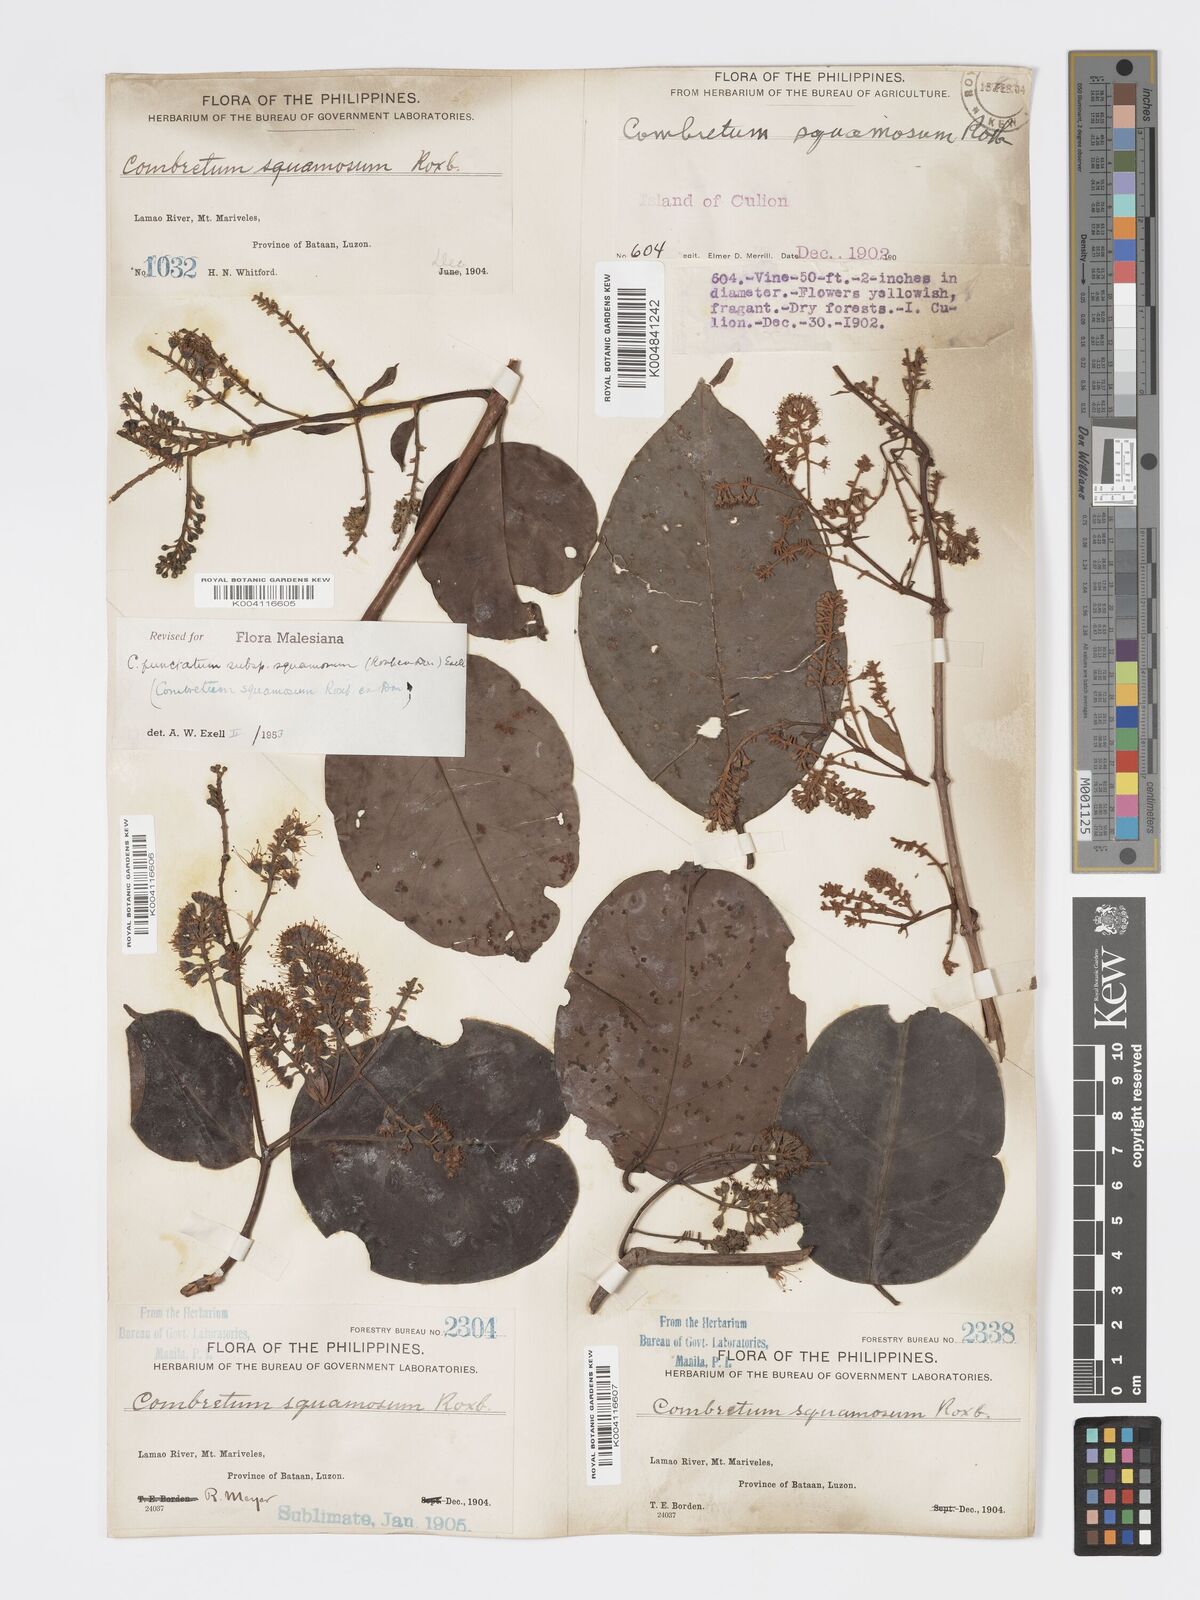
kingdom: Plantae
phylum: Tracheophyta
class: Magnoliopsida
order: Myrtales
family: Combretaceae
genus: Combretum
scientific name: Combretum
